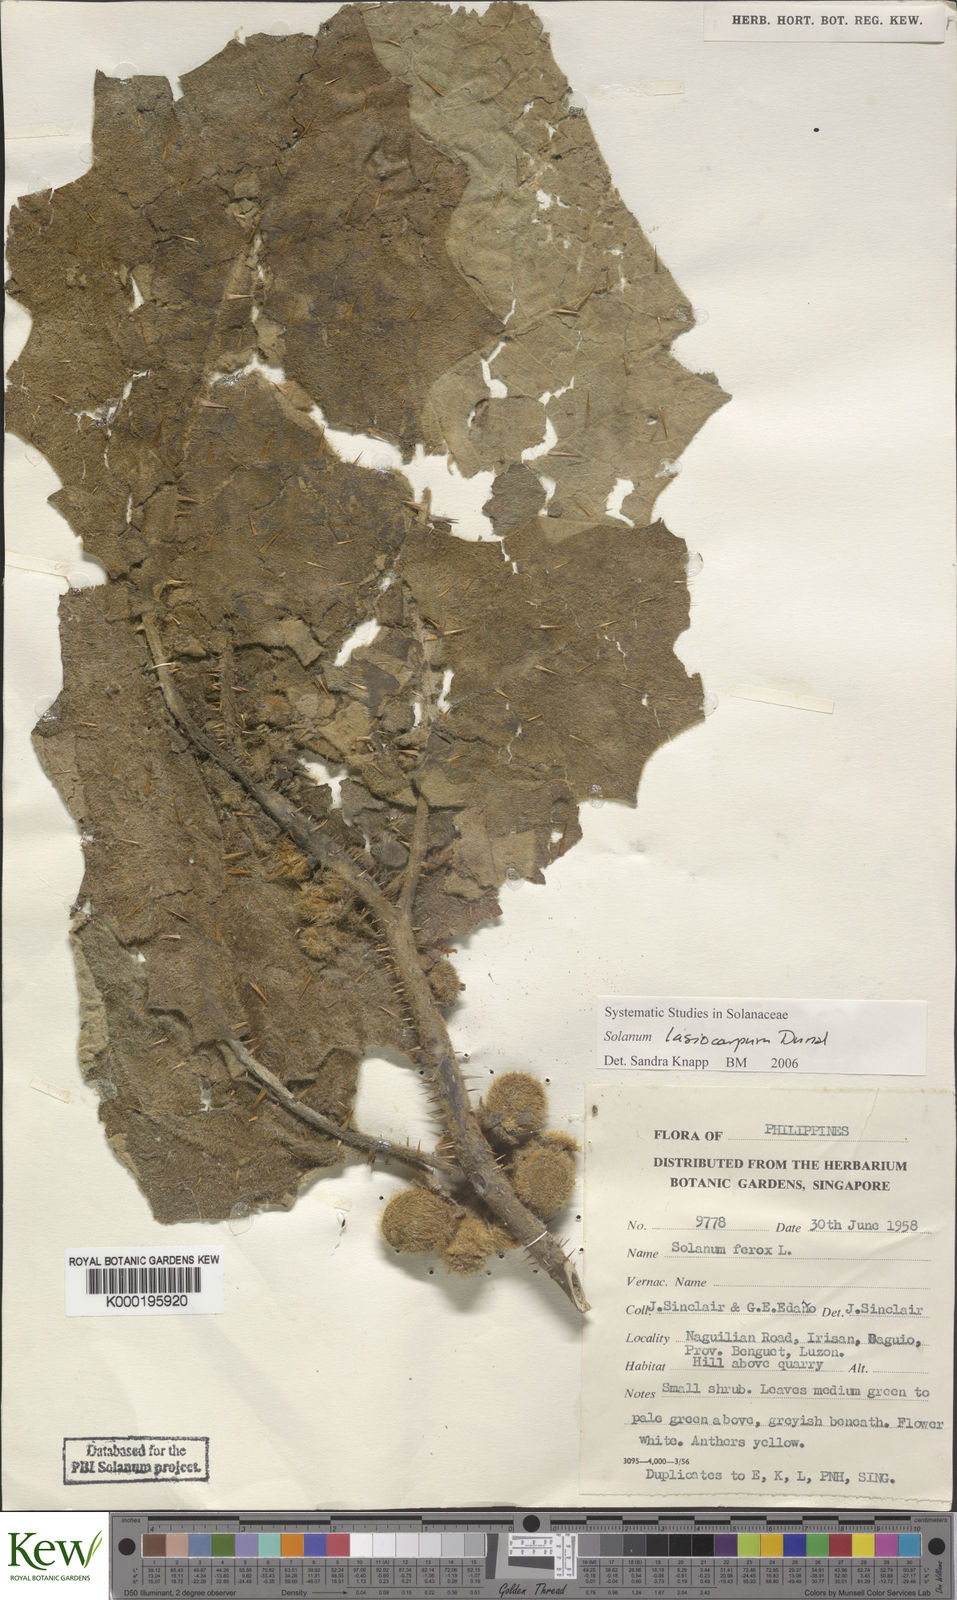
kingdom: Plantae
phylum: Tracheophyta
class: Magnoliopsida
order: Solanales
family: Solanaceae
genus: Solanum
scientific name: Solanum lasiocarpum
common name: Indian nightshade
